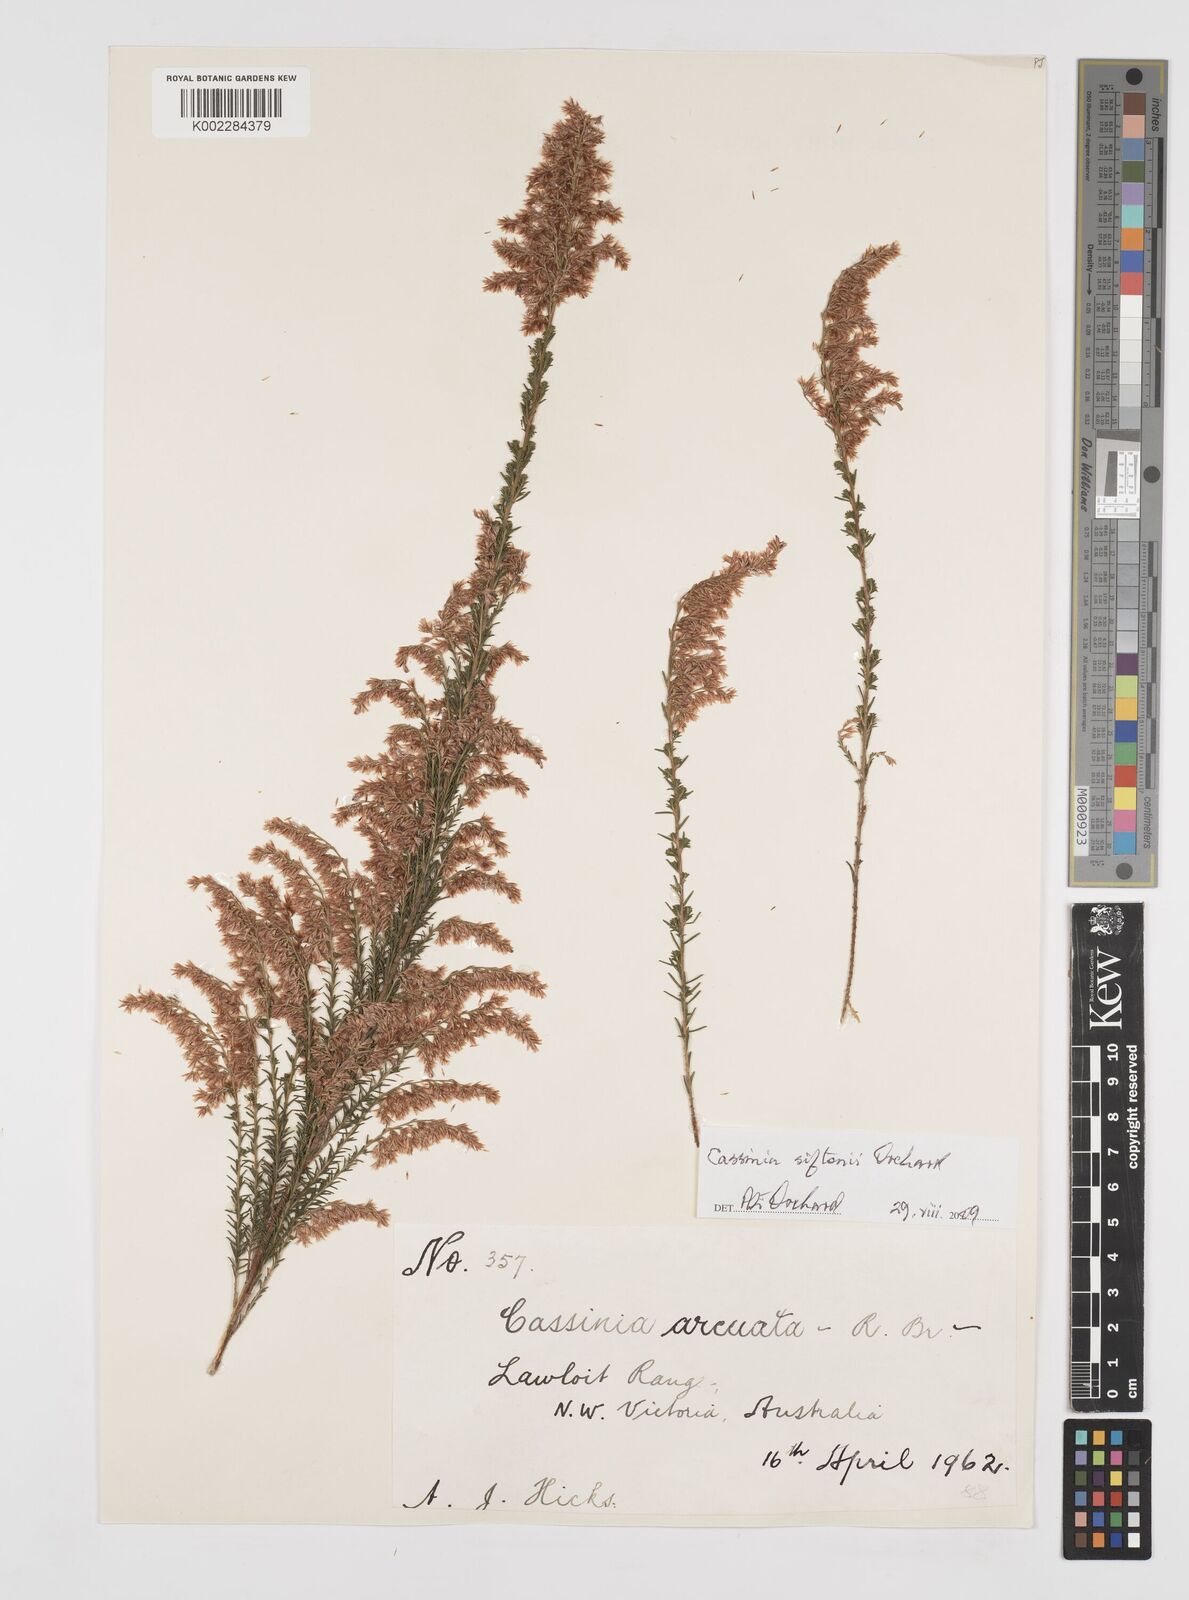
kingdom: Plantae
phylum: Tracheophyta
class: Magnoliopsida
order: Asterales
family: Asteraceae
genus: Cassinia
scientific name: Cassinia arcuata
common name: Chineseshrub
